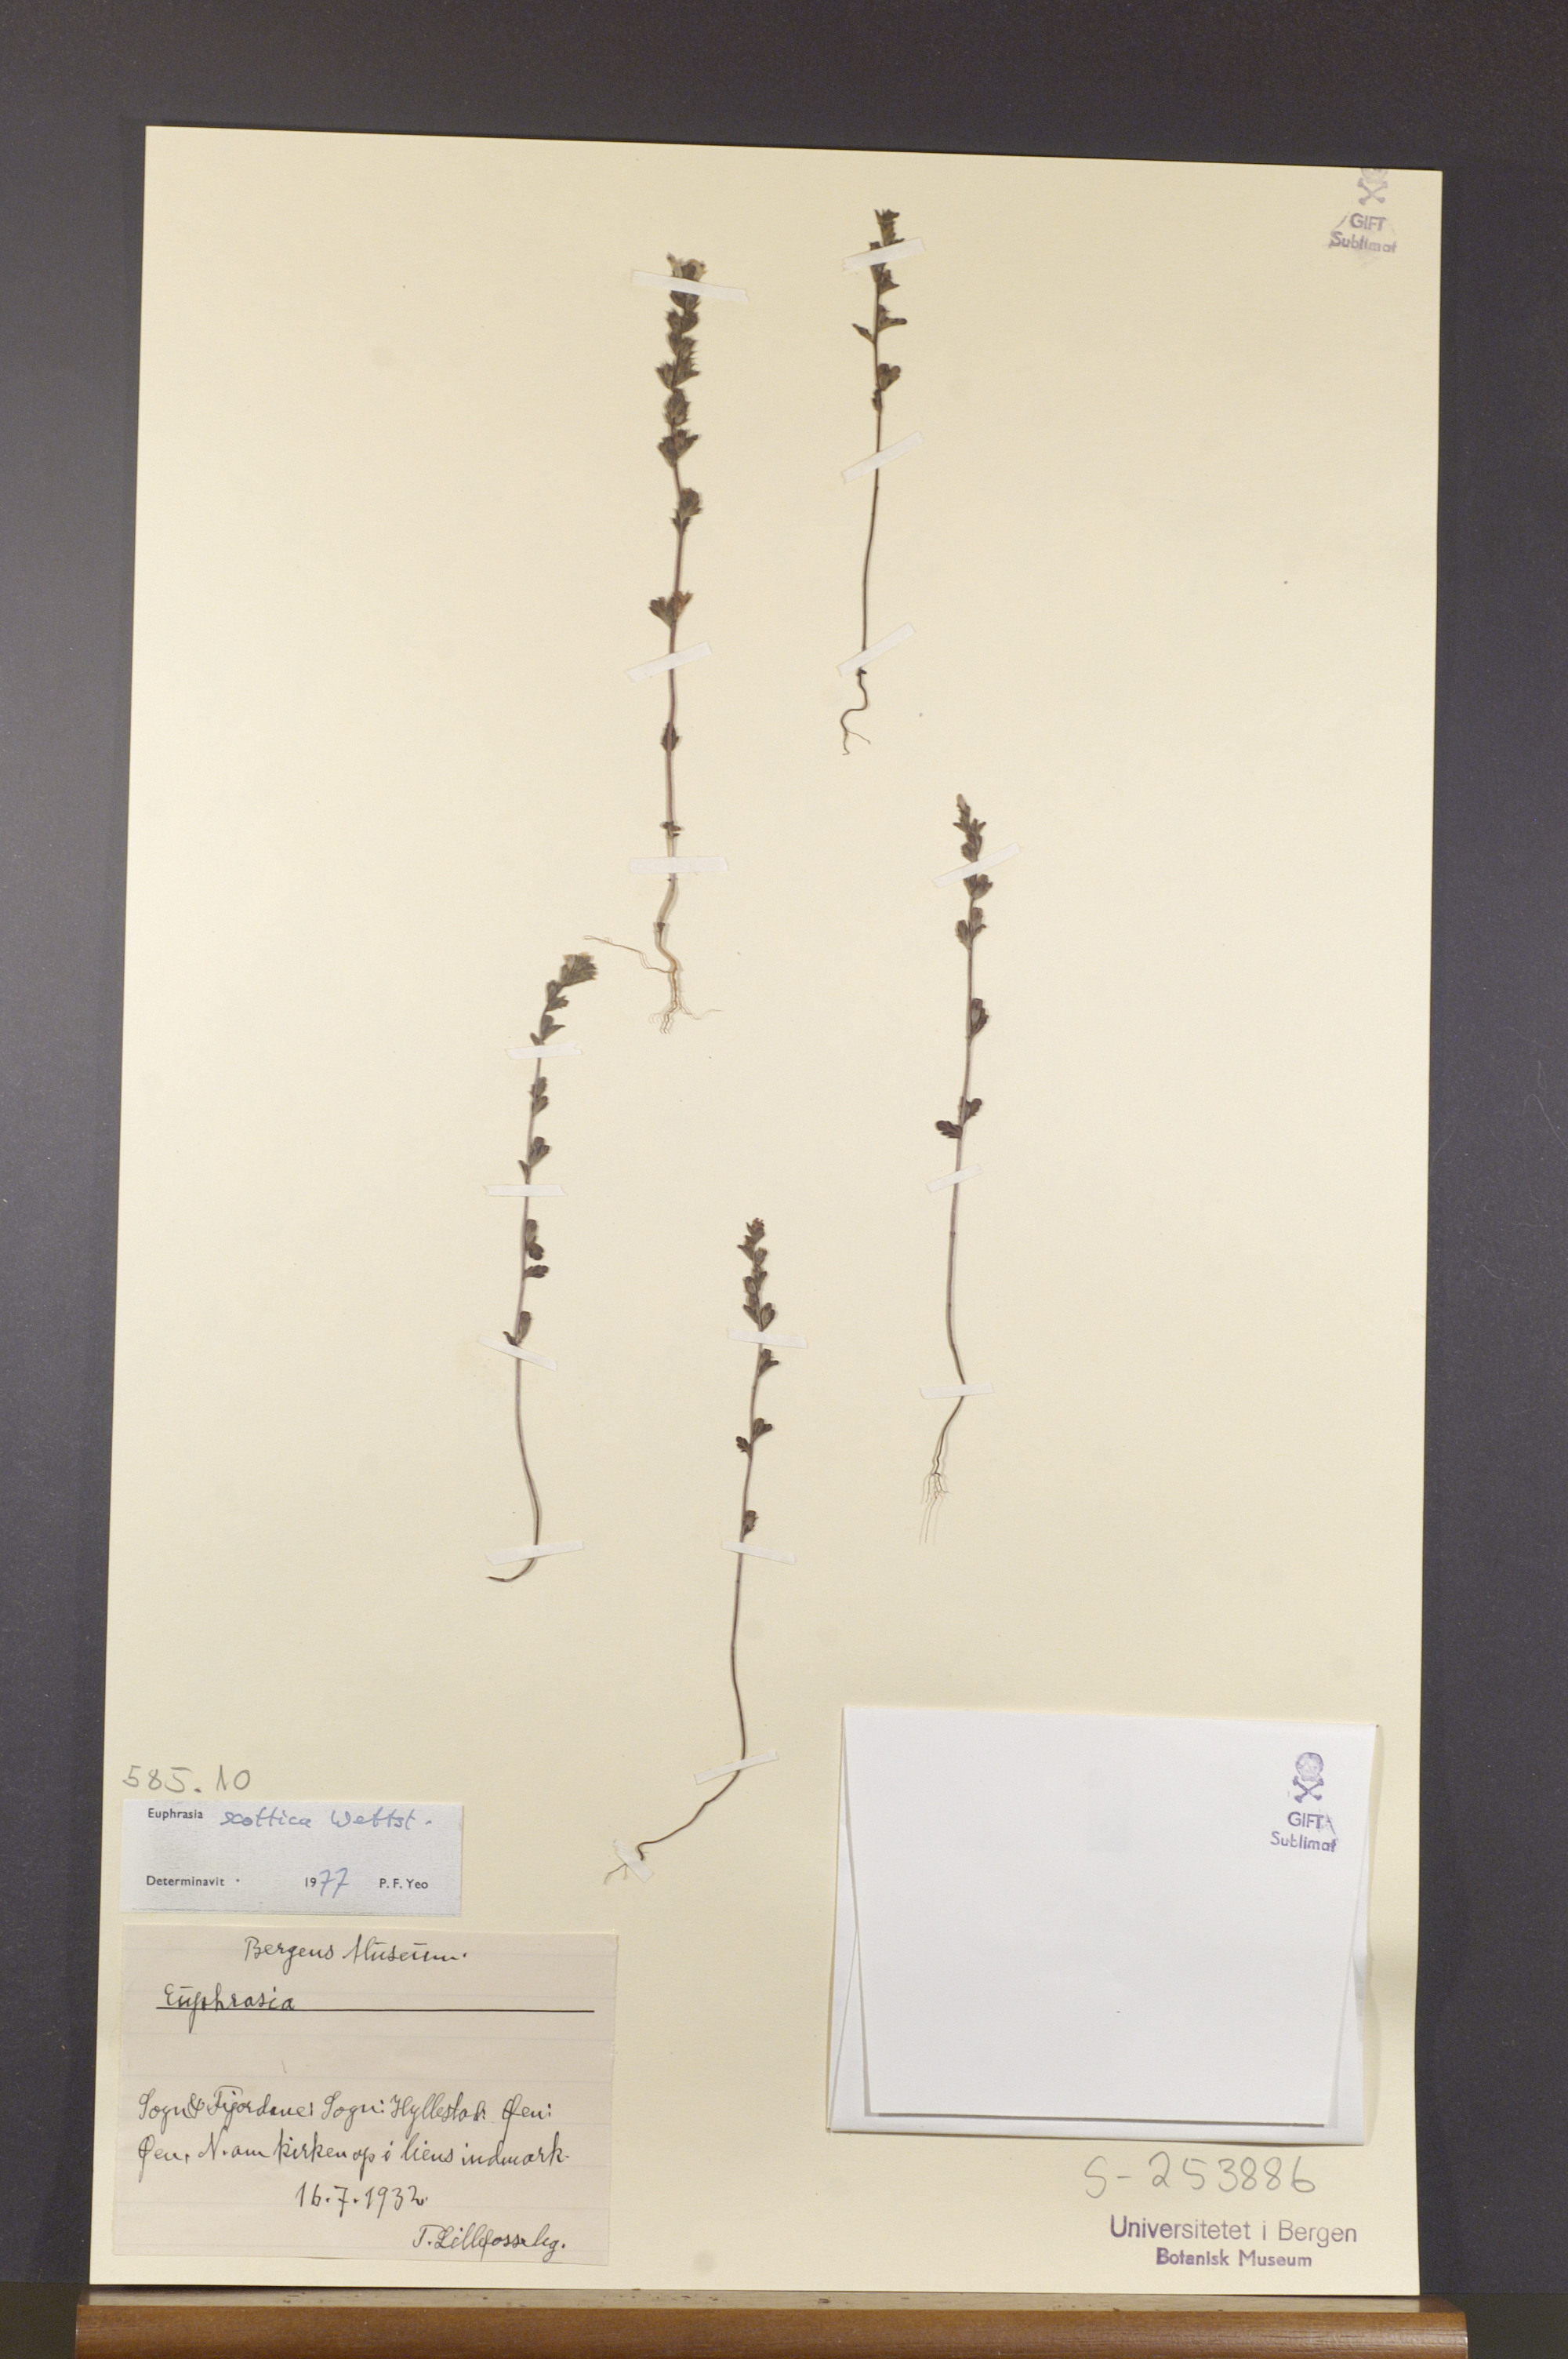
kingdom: Plantae
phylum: Tracheophyta
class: Magnoliopsida
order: Lamiales
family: Orobanchaceae
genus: Euphrasia
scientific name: Euphrasia scottica
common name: Slender scottish eyebright
